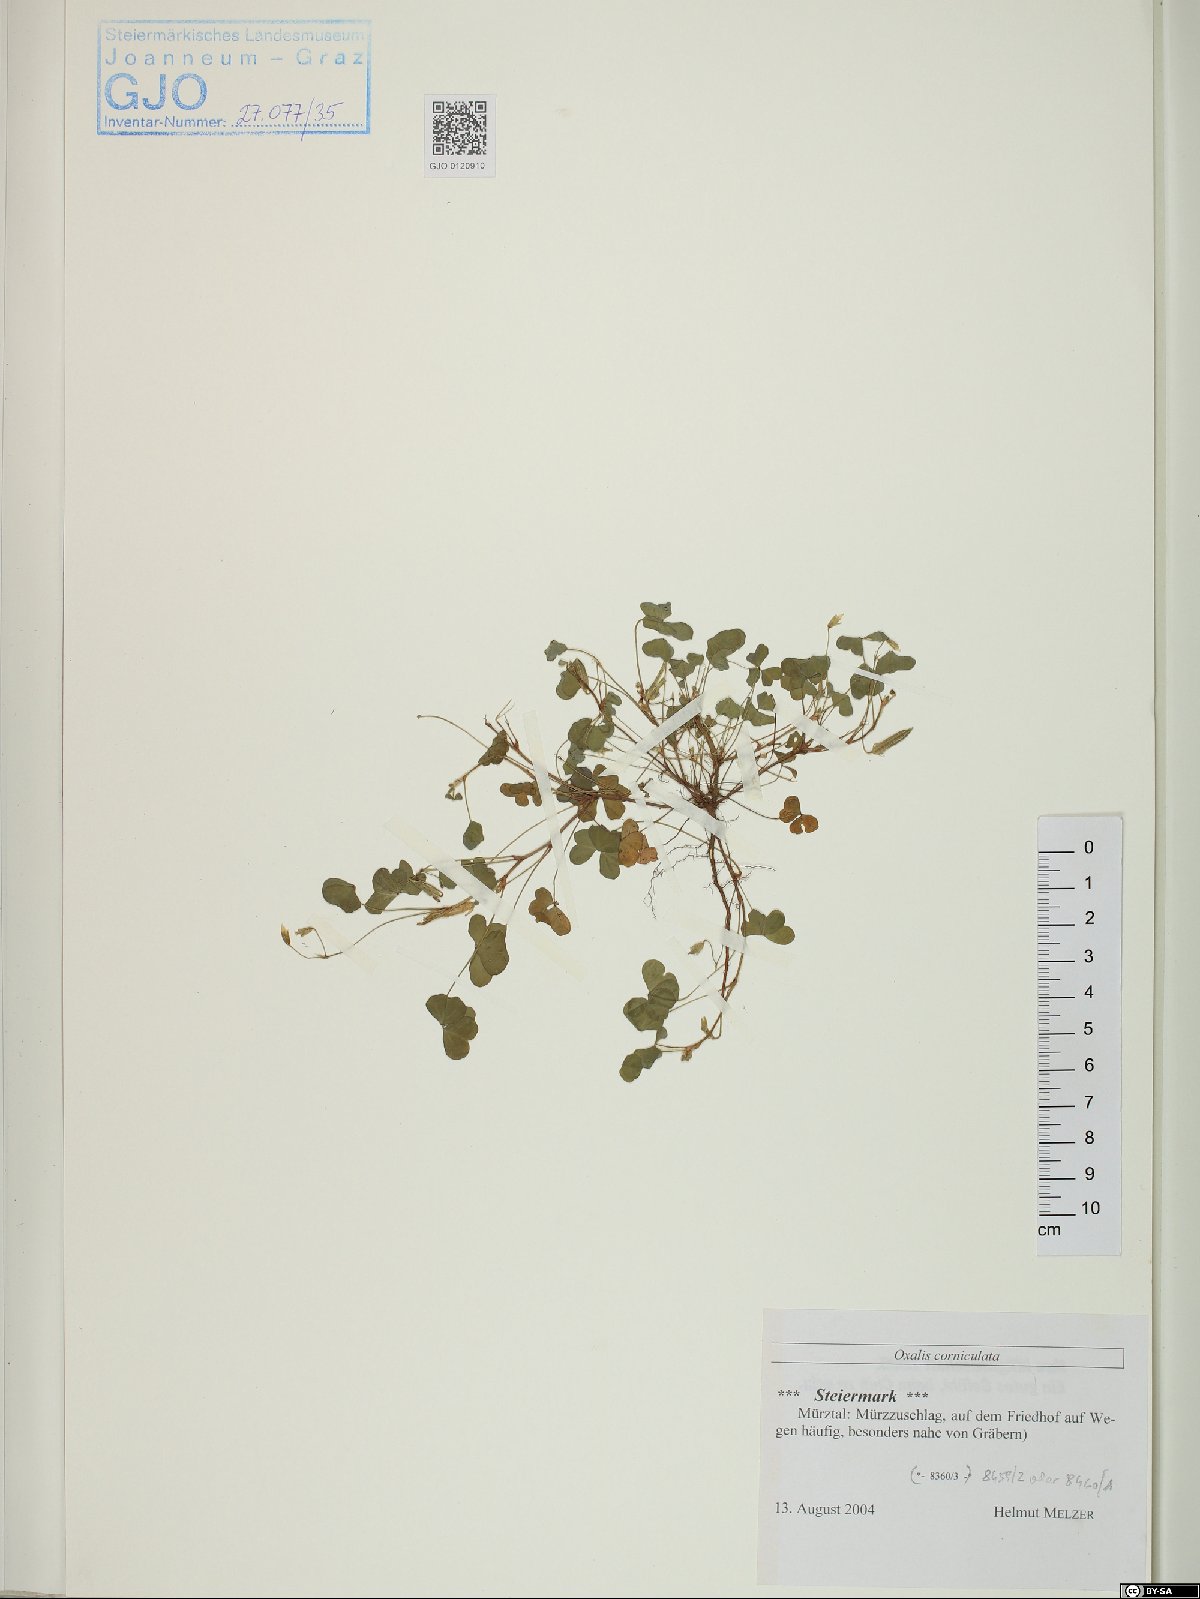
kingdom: Plantae
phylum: Tracheophyta
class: Magnoliopsida
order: Oxalidales
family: Oxalidaceae
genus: Oxalis
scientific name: Oxalis corniculata
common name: Procumbent yellow-sorrel
